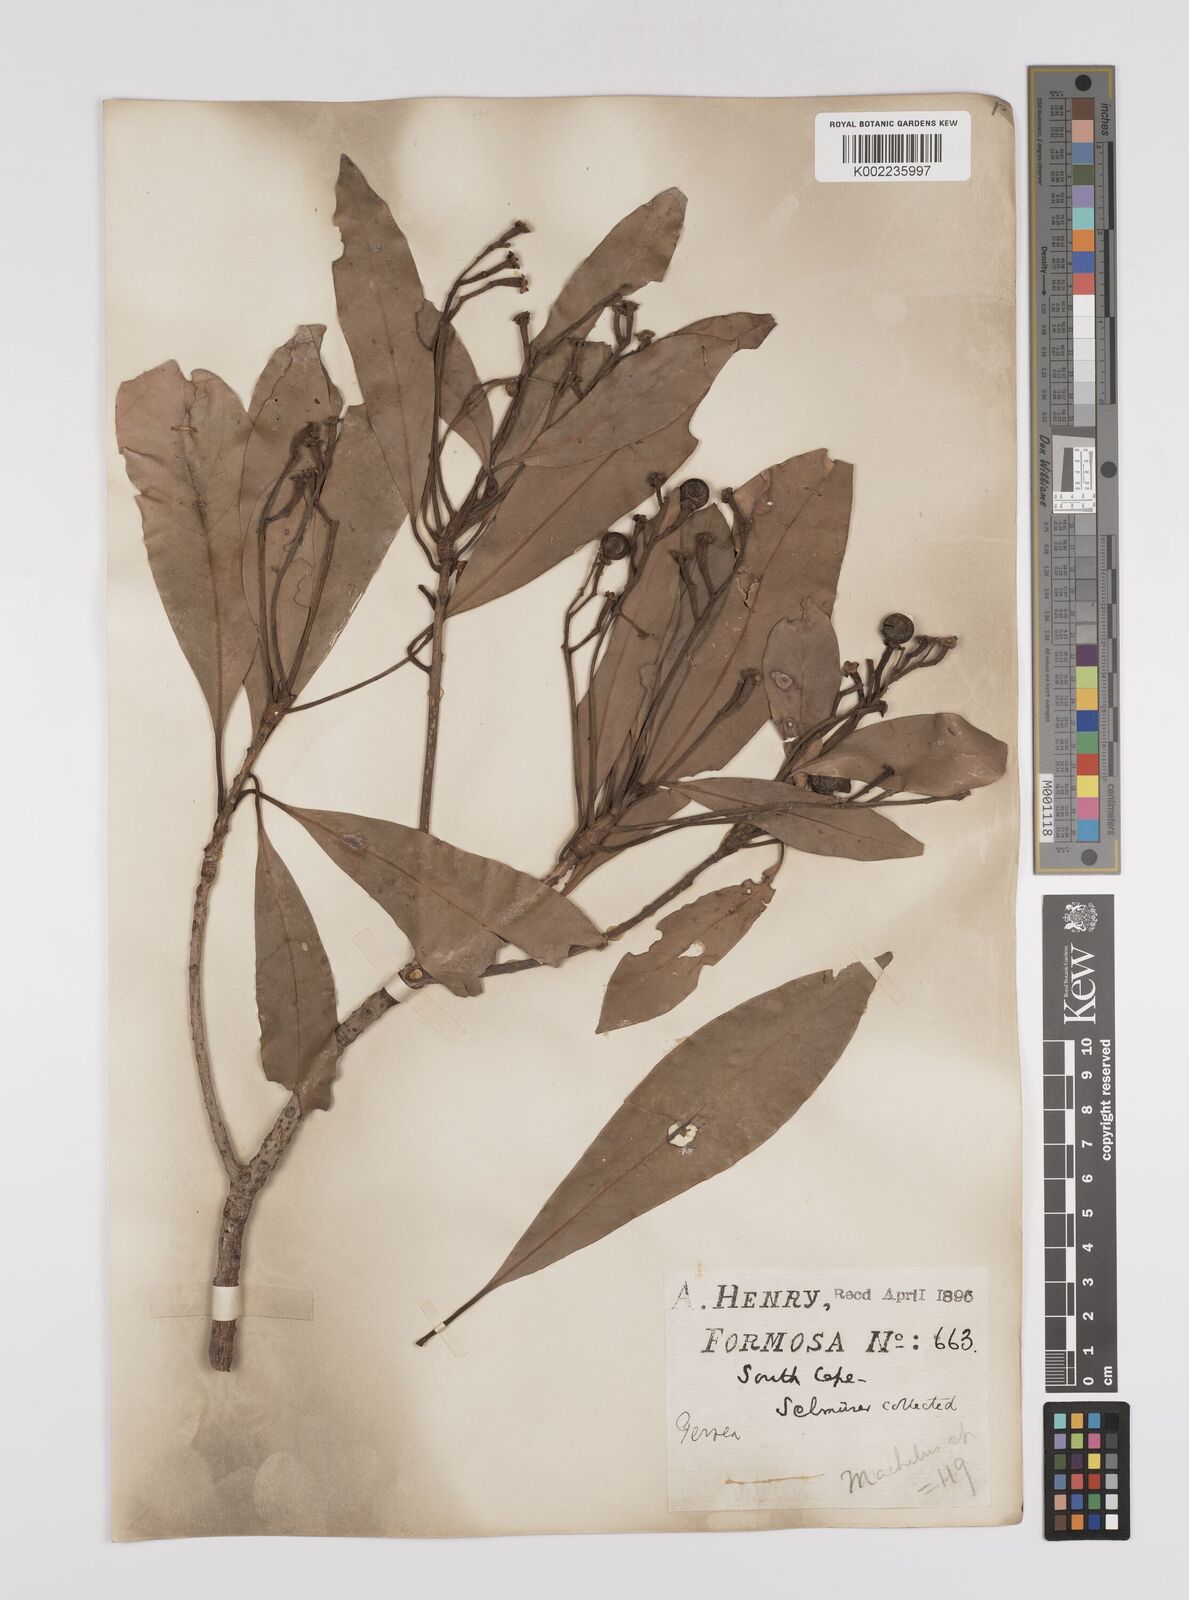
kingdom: Plantae
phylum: Tracheophyta
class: Magnoliopsida
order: Laurales
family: Lauraceae
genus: Persea
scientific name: Persea
